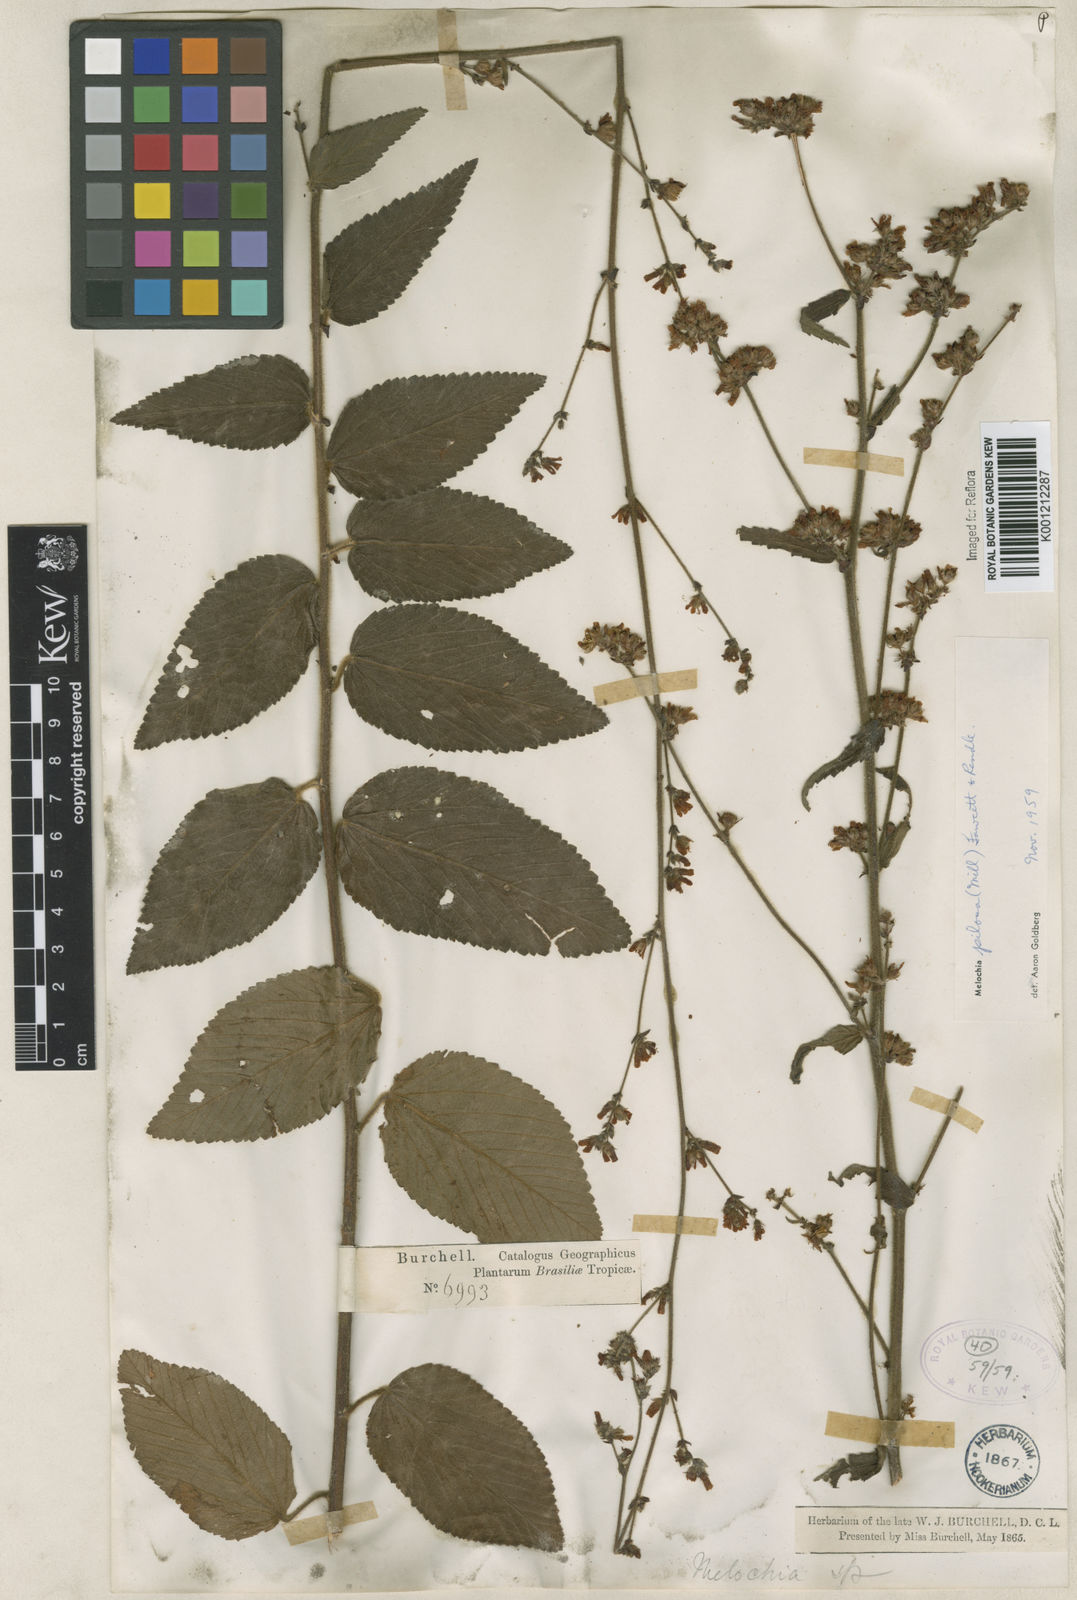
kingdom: Plantae
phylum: Tracheophyta
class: Magnoliopsida
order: Malvales
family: Malvaceae
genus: Melochia
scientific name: Melochia pilosa
